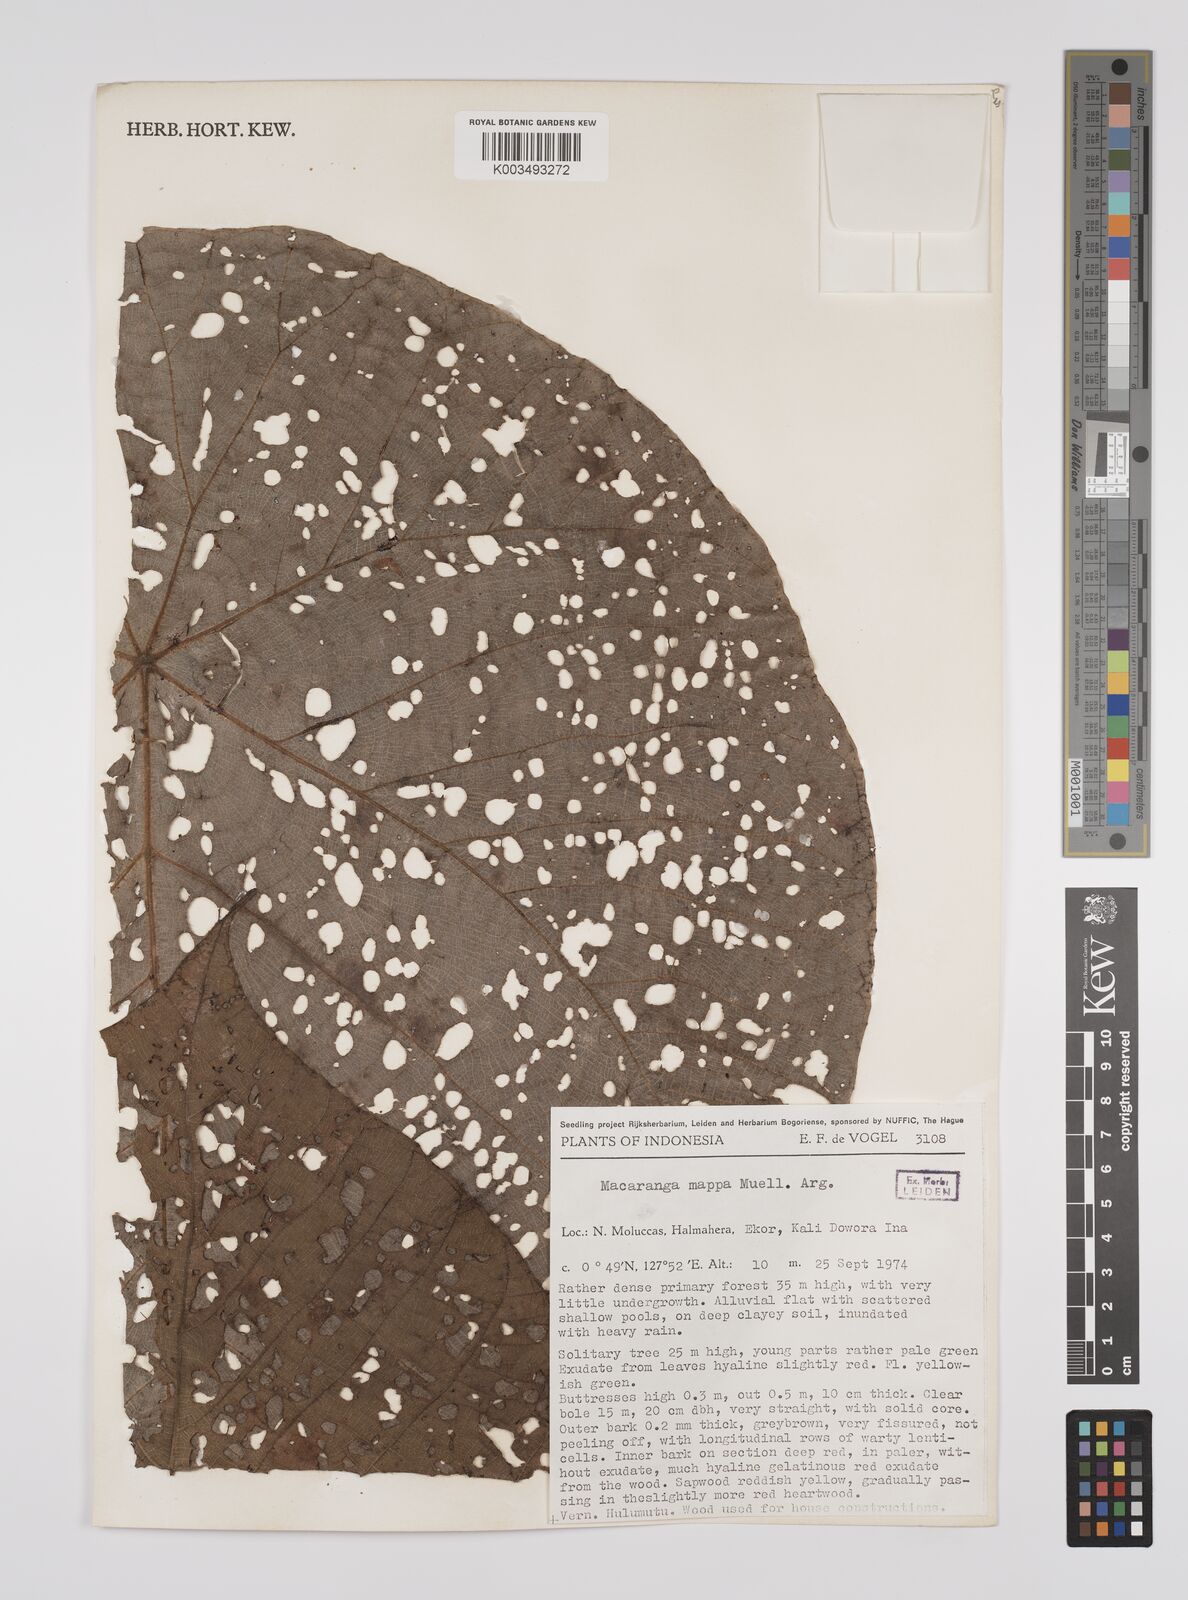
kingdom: Plantae
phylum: Tracheophyta
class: Magnoliopsida
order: Malpighiales
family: Euphorbiaceae
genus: Macaranga
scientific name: Macaranga mappa
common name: Pengua
